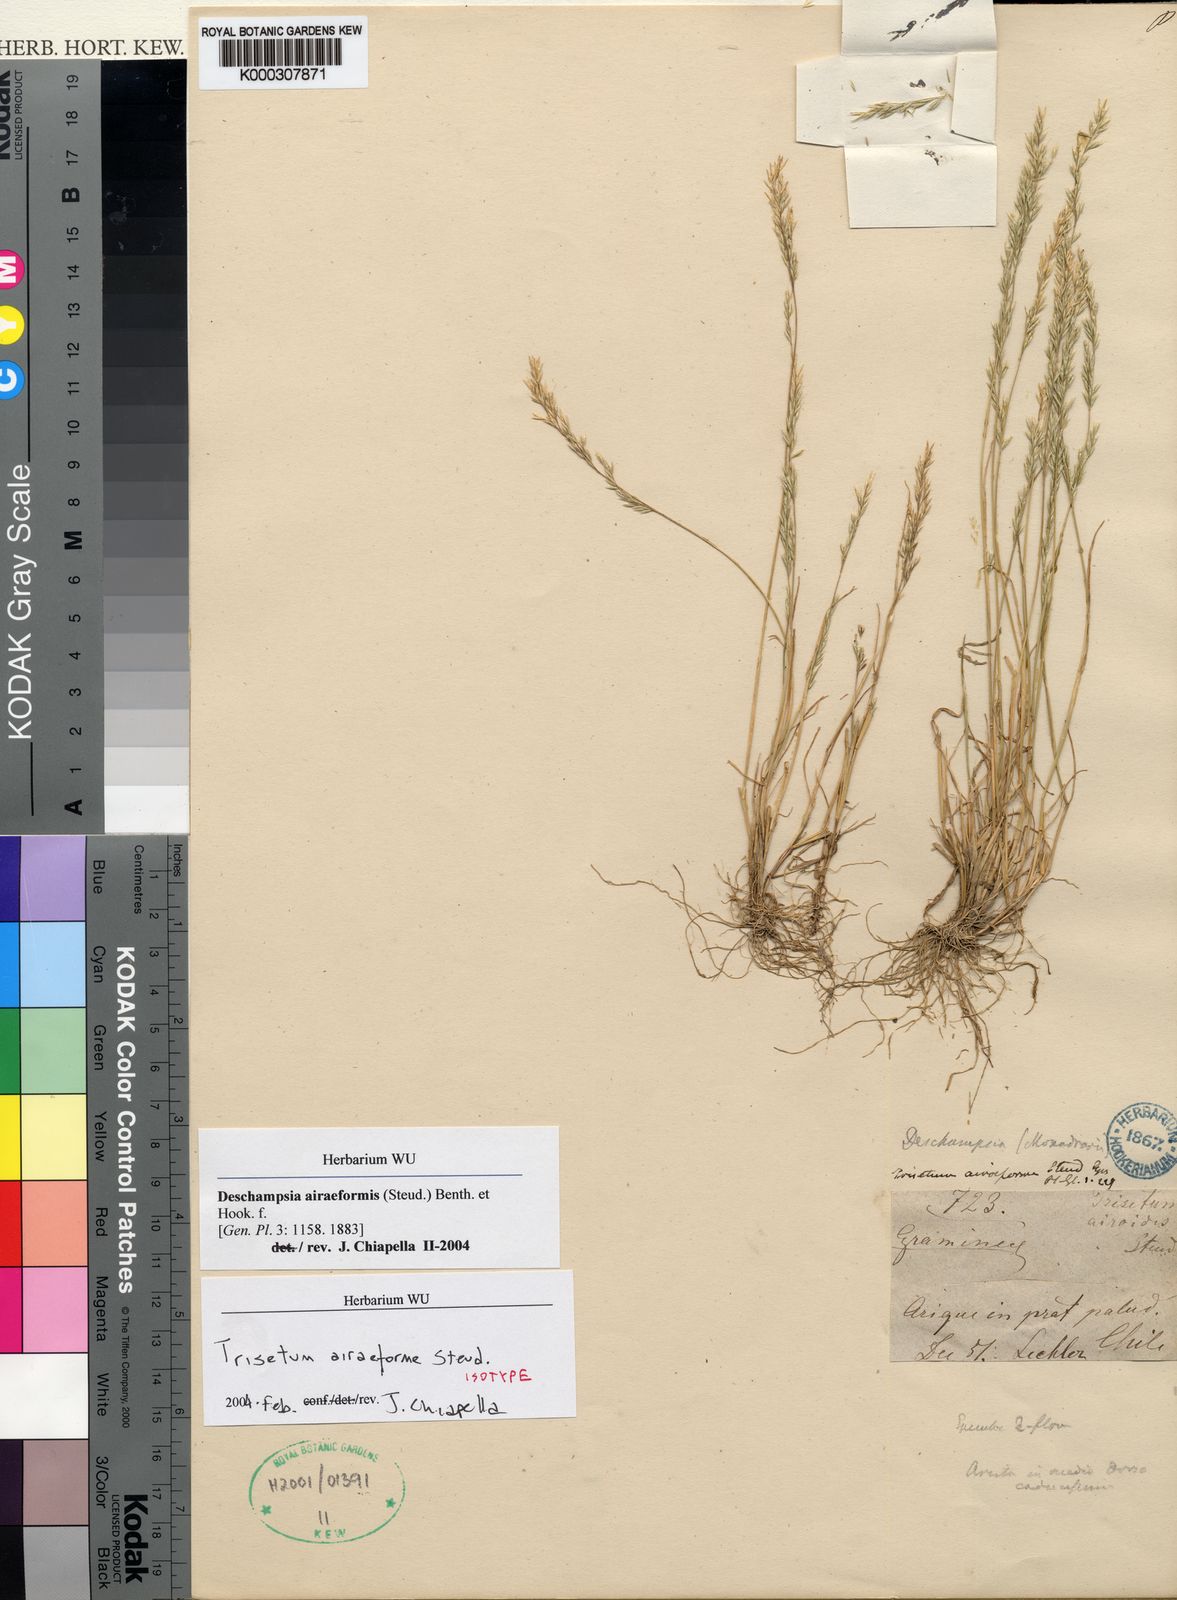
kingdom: Plantae
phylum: Tracheophyta
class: Liliopsida
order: Poales
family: Poaceae
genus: Deschampsia
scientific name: Deschampsia
